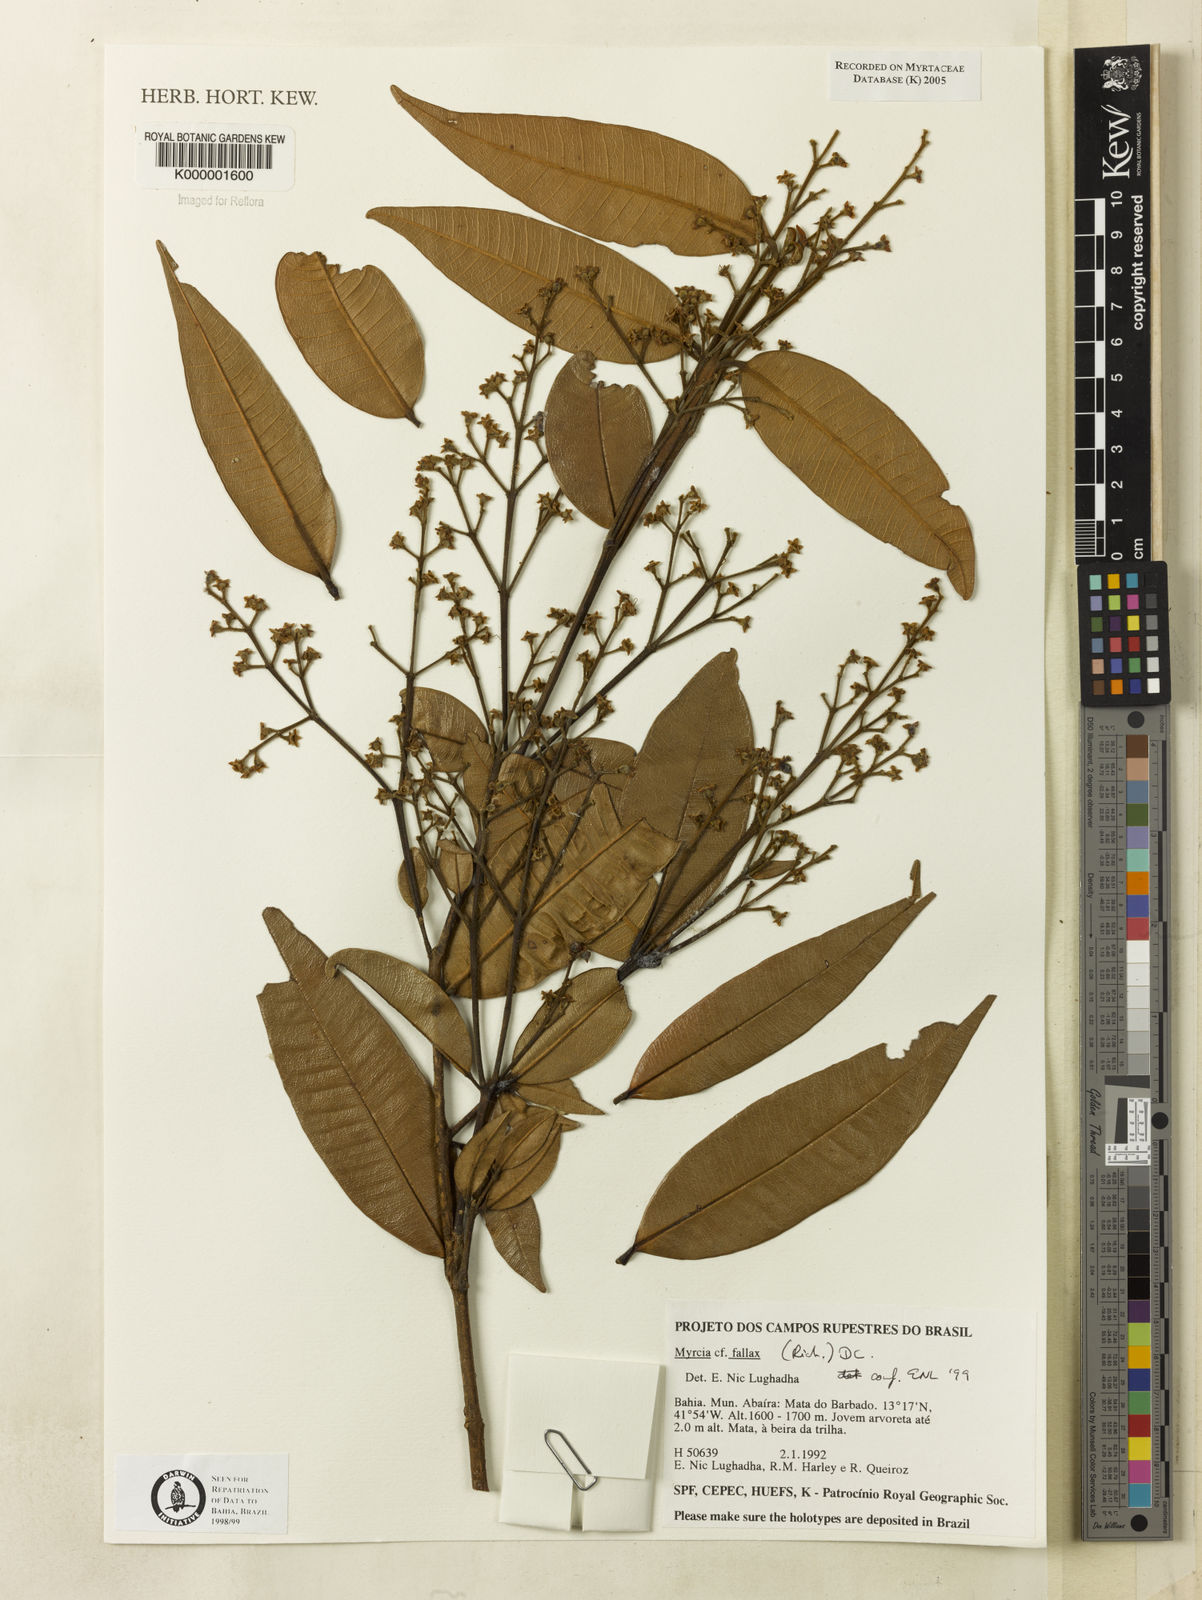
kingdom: Plantae
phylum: Tracheophyta
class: Magnoliopsida
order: Myrtales
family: Myrtaceae
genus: Myrcia
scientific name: Myrcia splendens
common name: Surinam cherry
